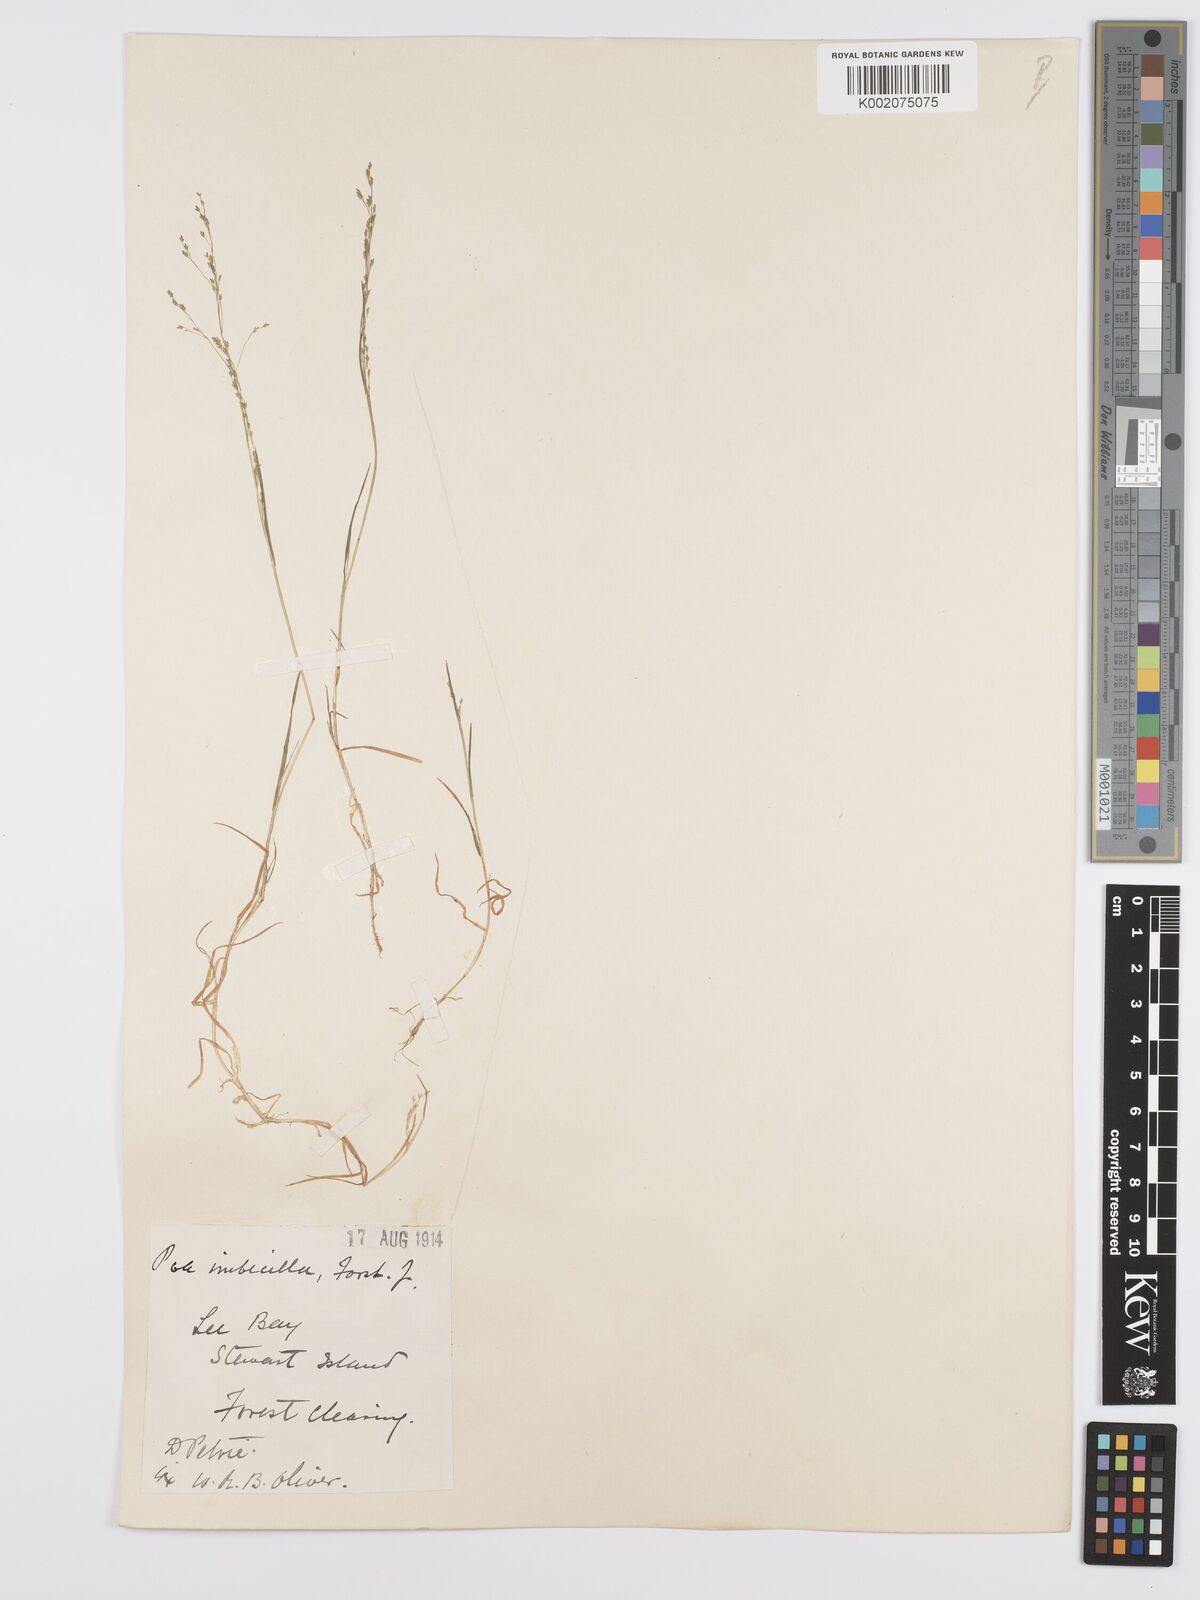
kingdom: Plantae
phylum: Tracheophyta
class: Liliopsida
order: Poales
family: Poaceae
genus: Poa
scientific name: Poa breviglumis
